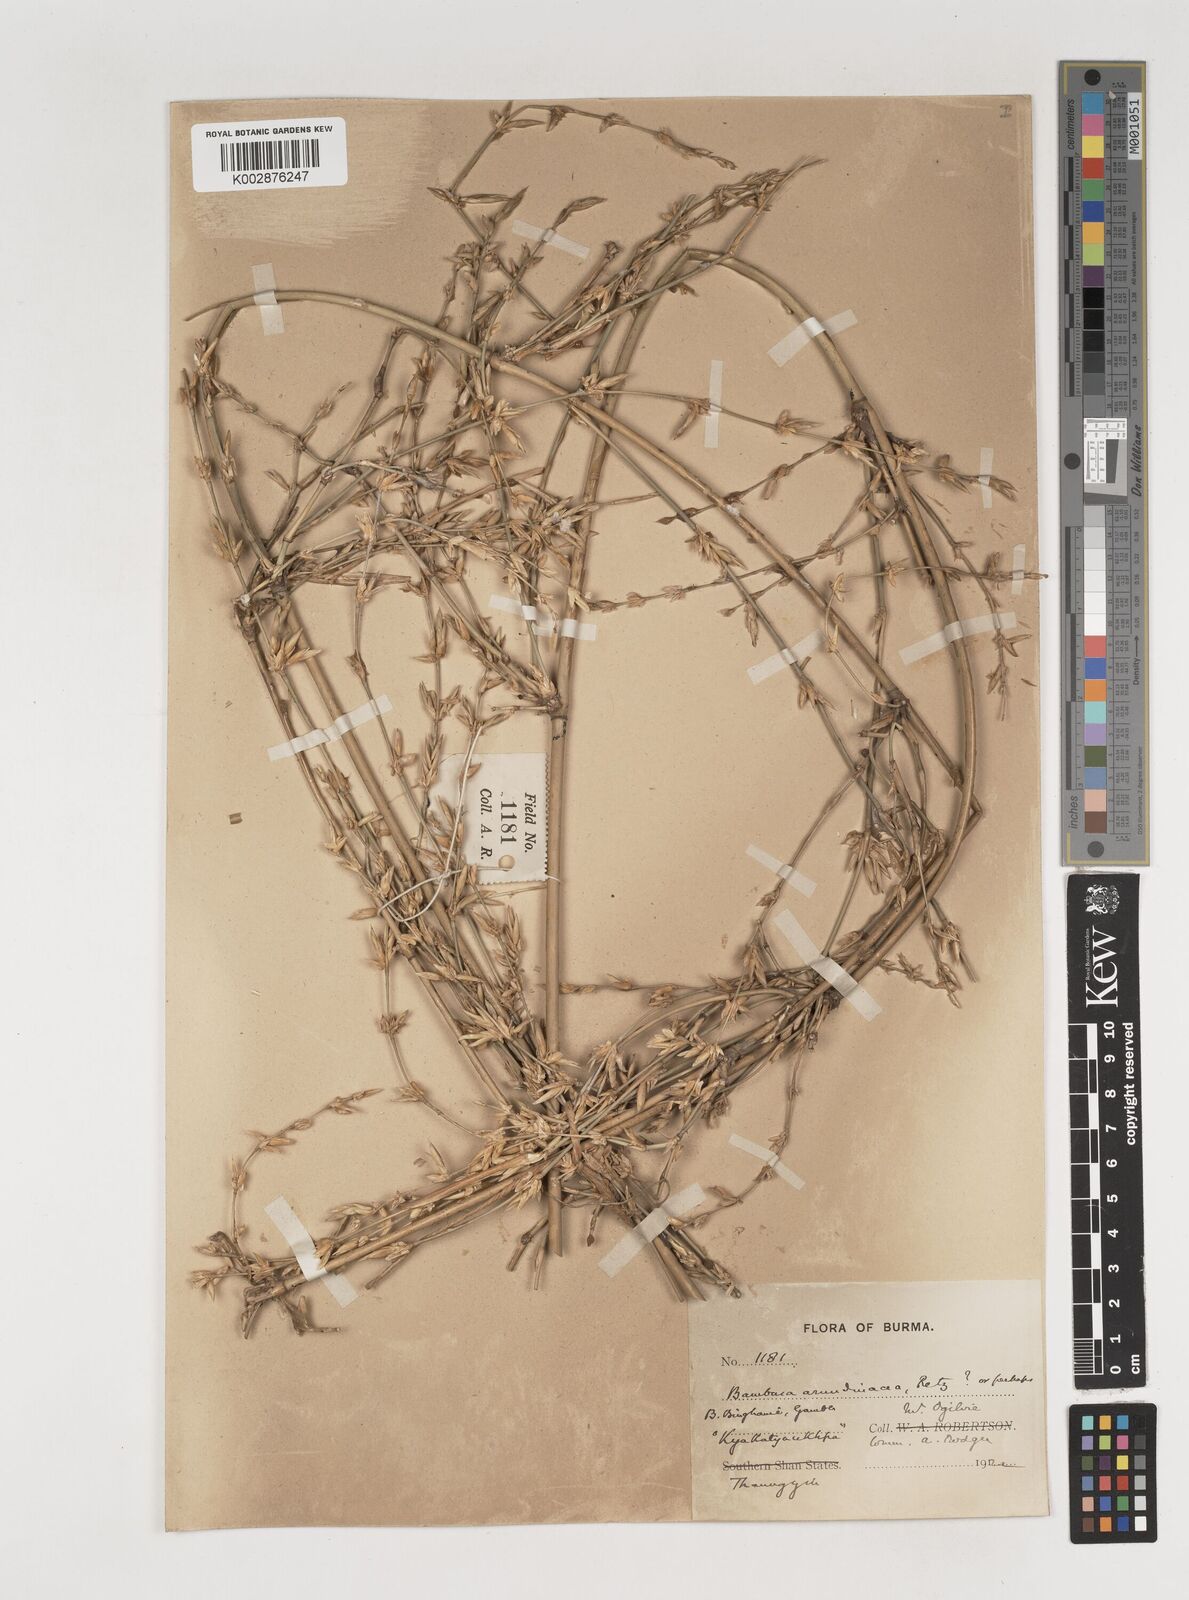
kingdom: Plantae
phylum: Tracheophyta
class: Liliopsida
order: Poales
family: Poaceae
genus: Bambusa
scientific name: Bambusa bambos
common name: Indian thorny bamboo
